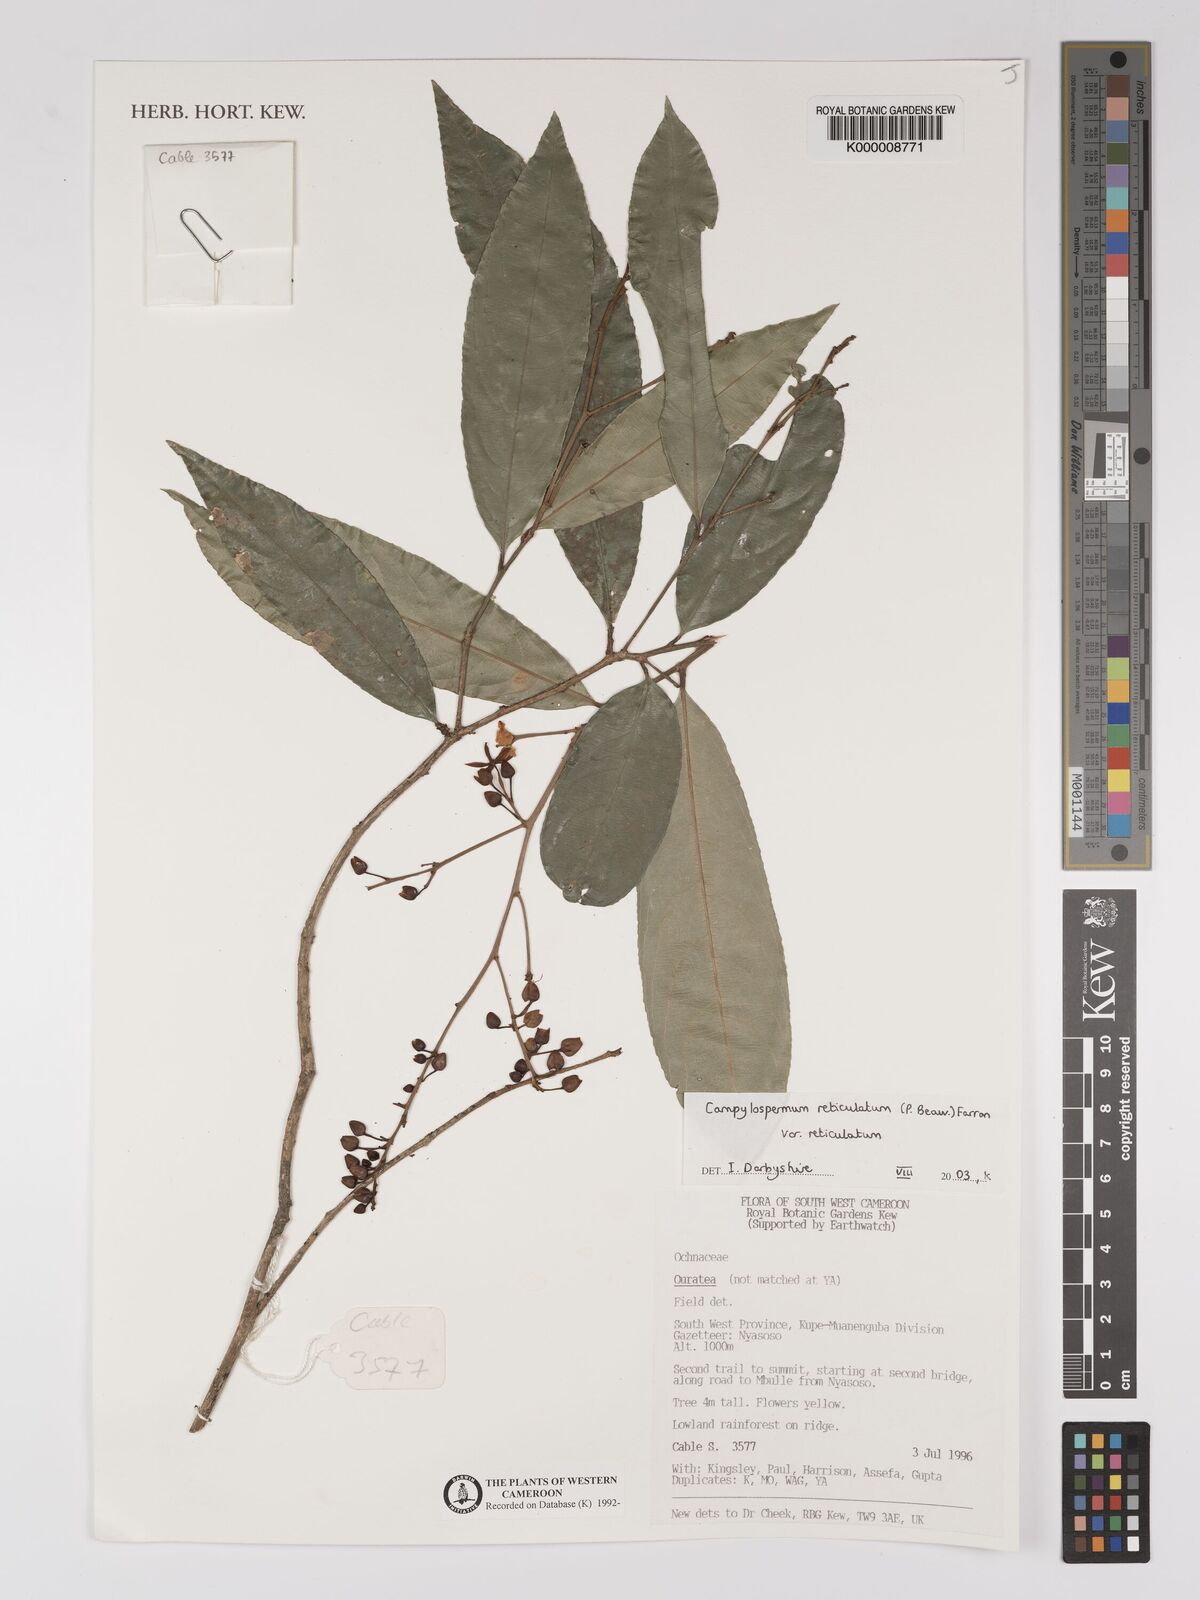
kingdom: Plantae
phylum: Tracheophyta
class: Magnoliopsida
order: Malpighiales
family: Ochnaceae
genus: Campylospermum
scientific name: Campylospermum reticulatum
